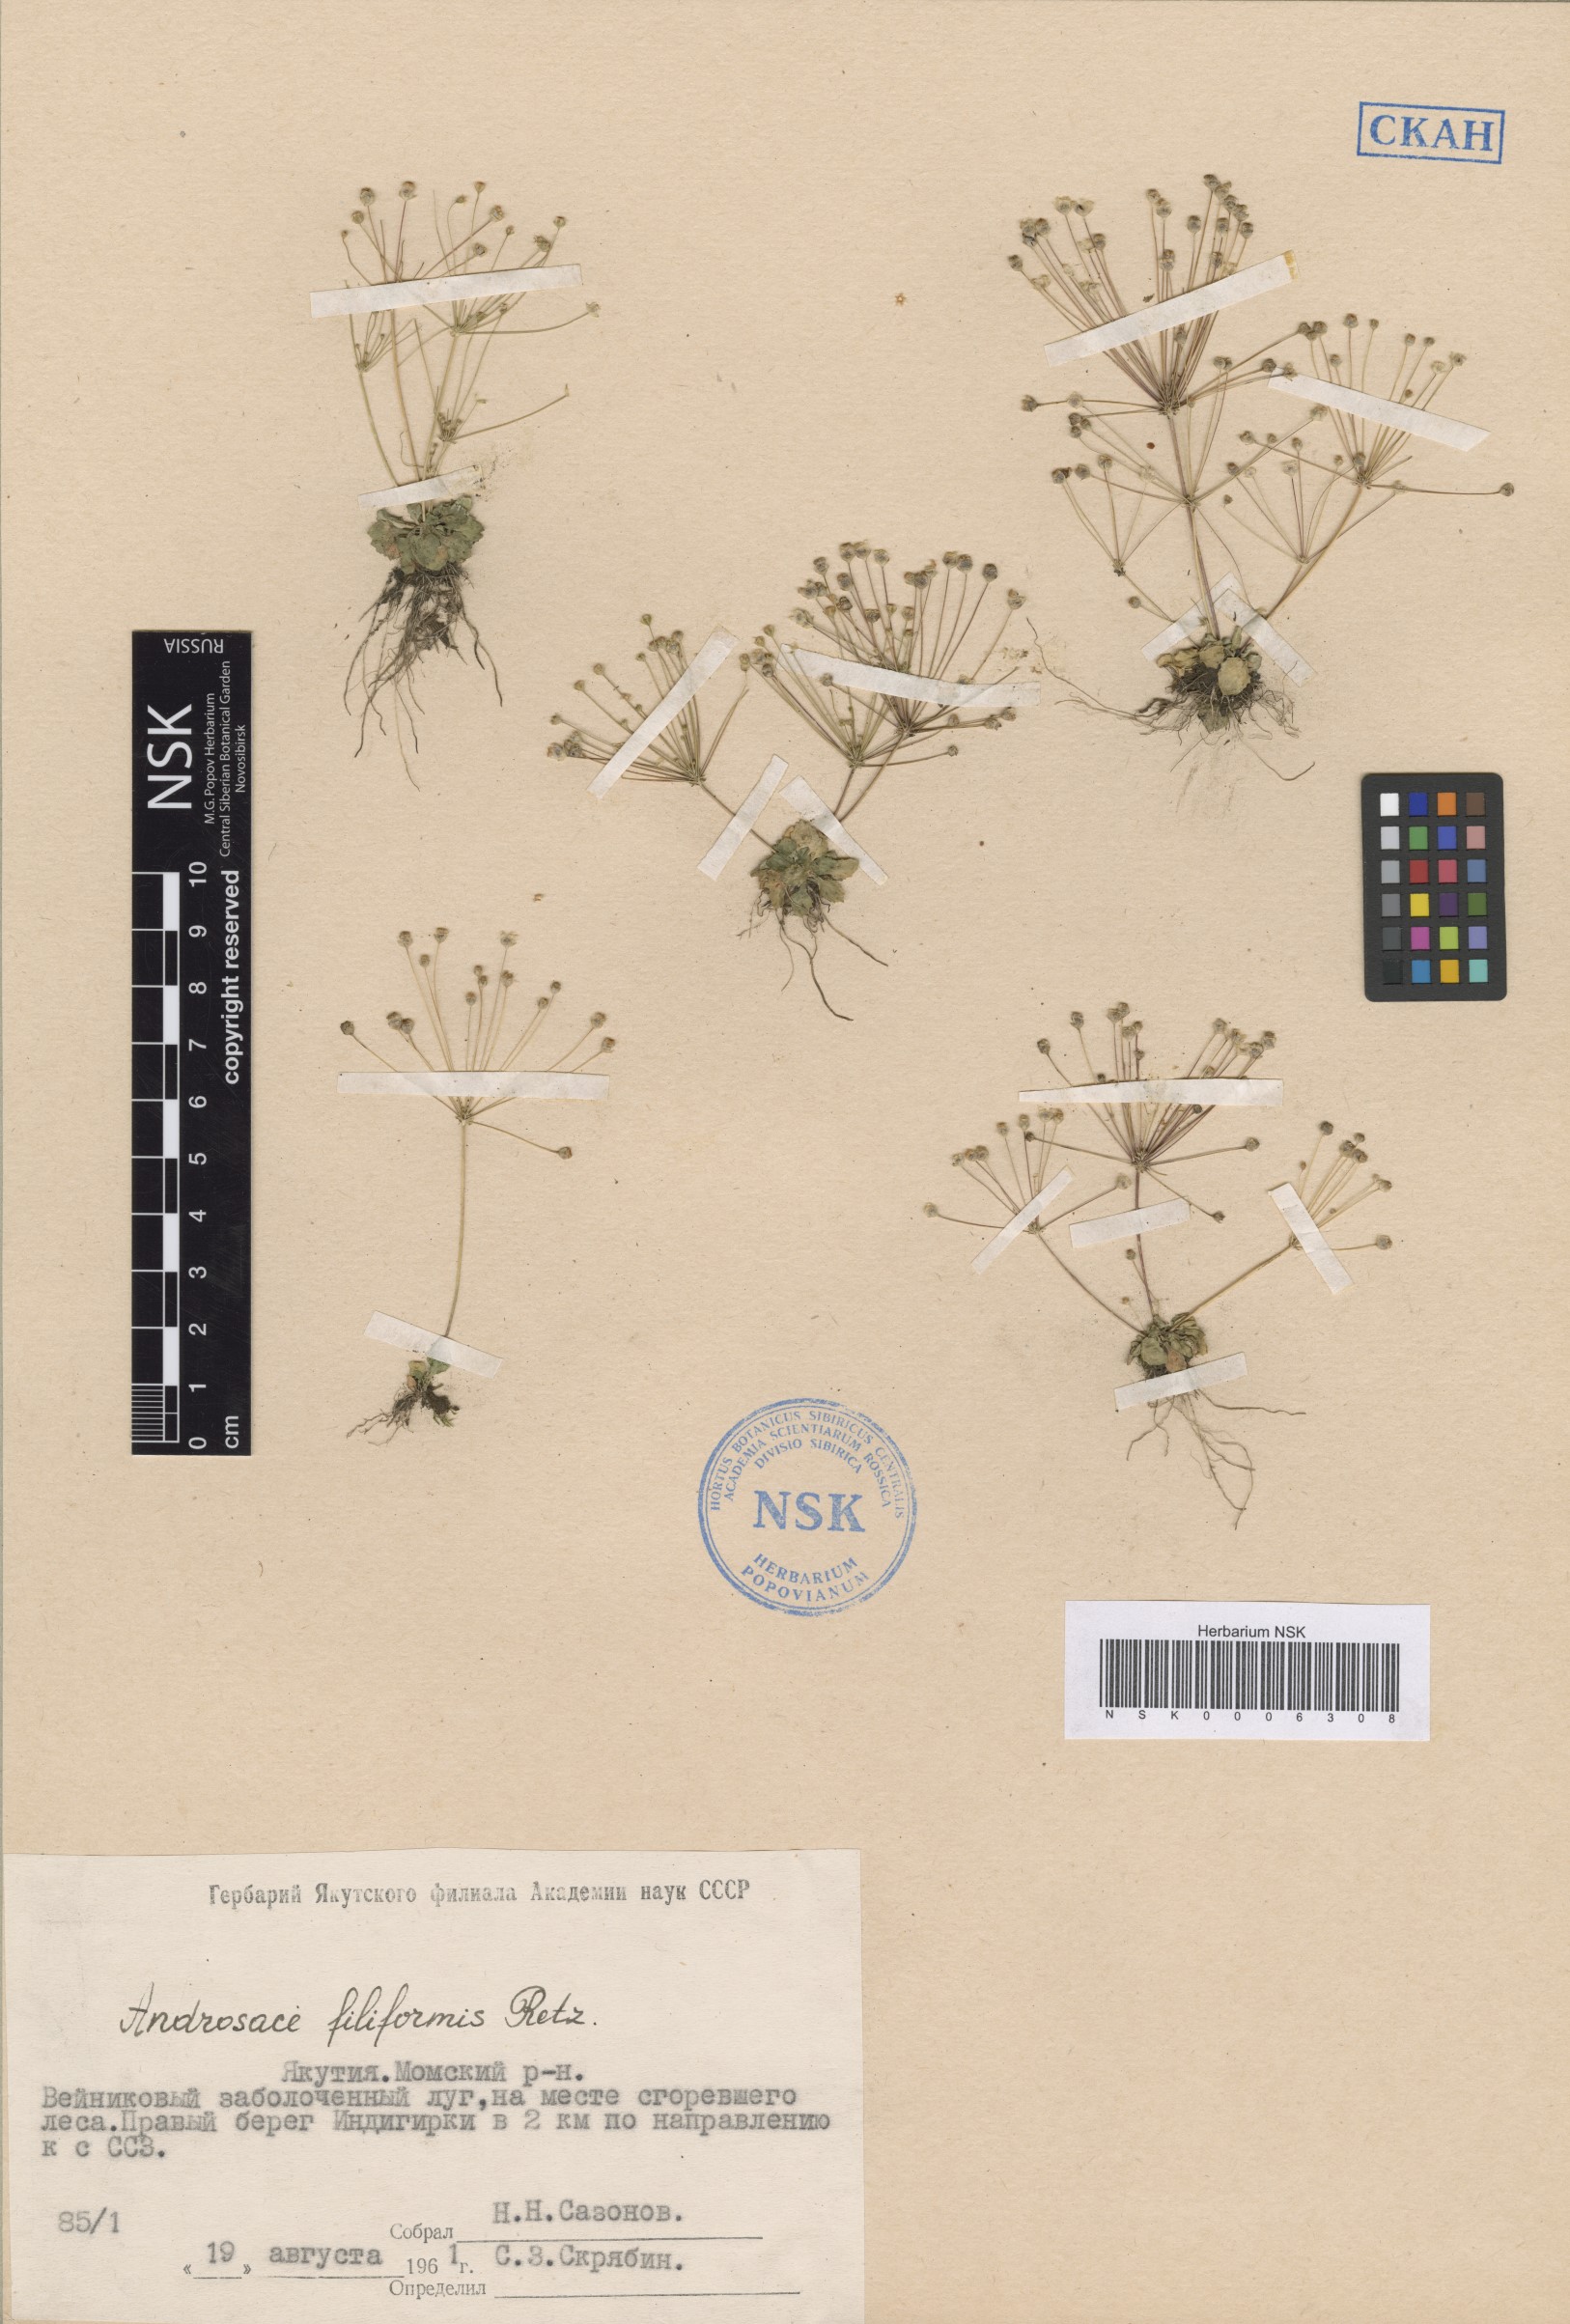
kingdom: Plantae
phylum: Tracheophyta
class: Magnoliopsida
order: Ericales
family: Primulaceae
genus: Androsace
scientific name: Androsace filiformis
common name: Filiform rock jasmine
